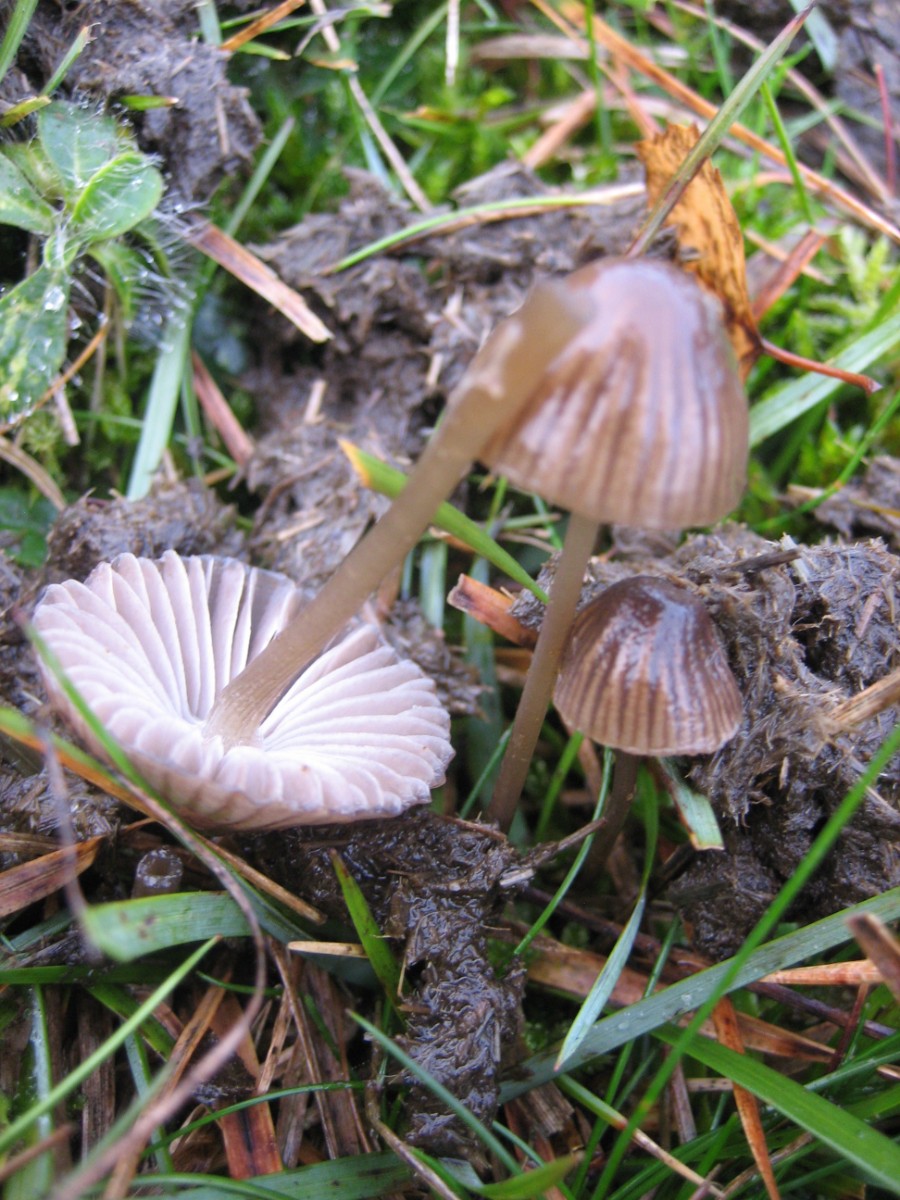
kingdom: Fungi
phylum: Basidiomycota
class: Agaricomycetes
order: Agaricales
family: Mycenaceae
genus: Mycena
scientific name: Mycena
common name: huesvamp
